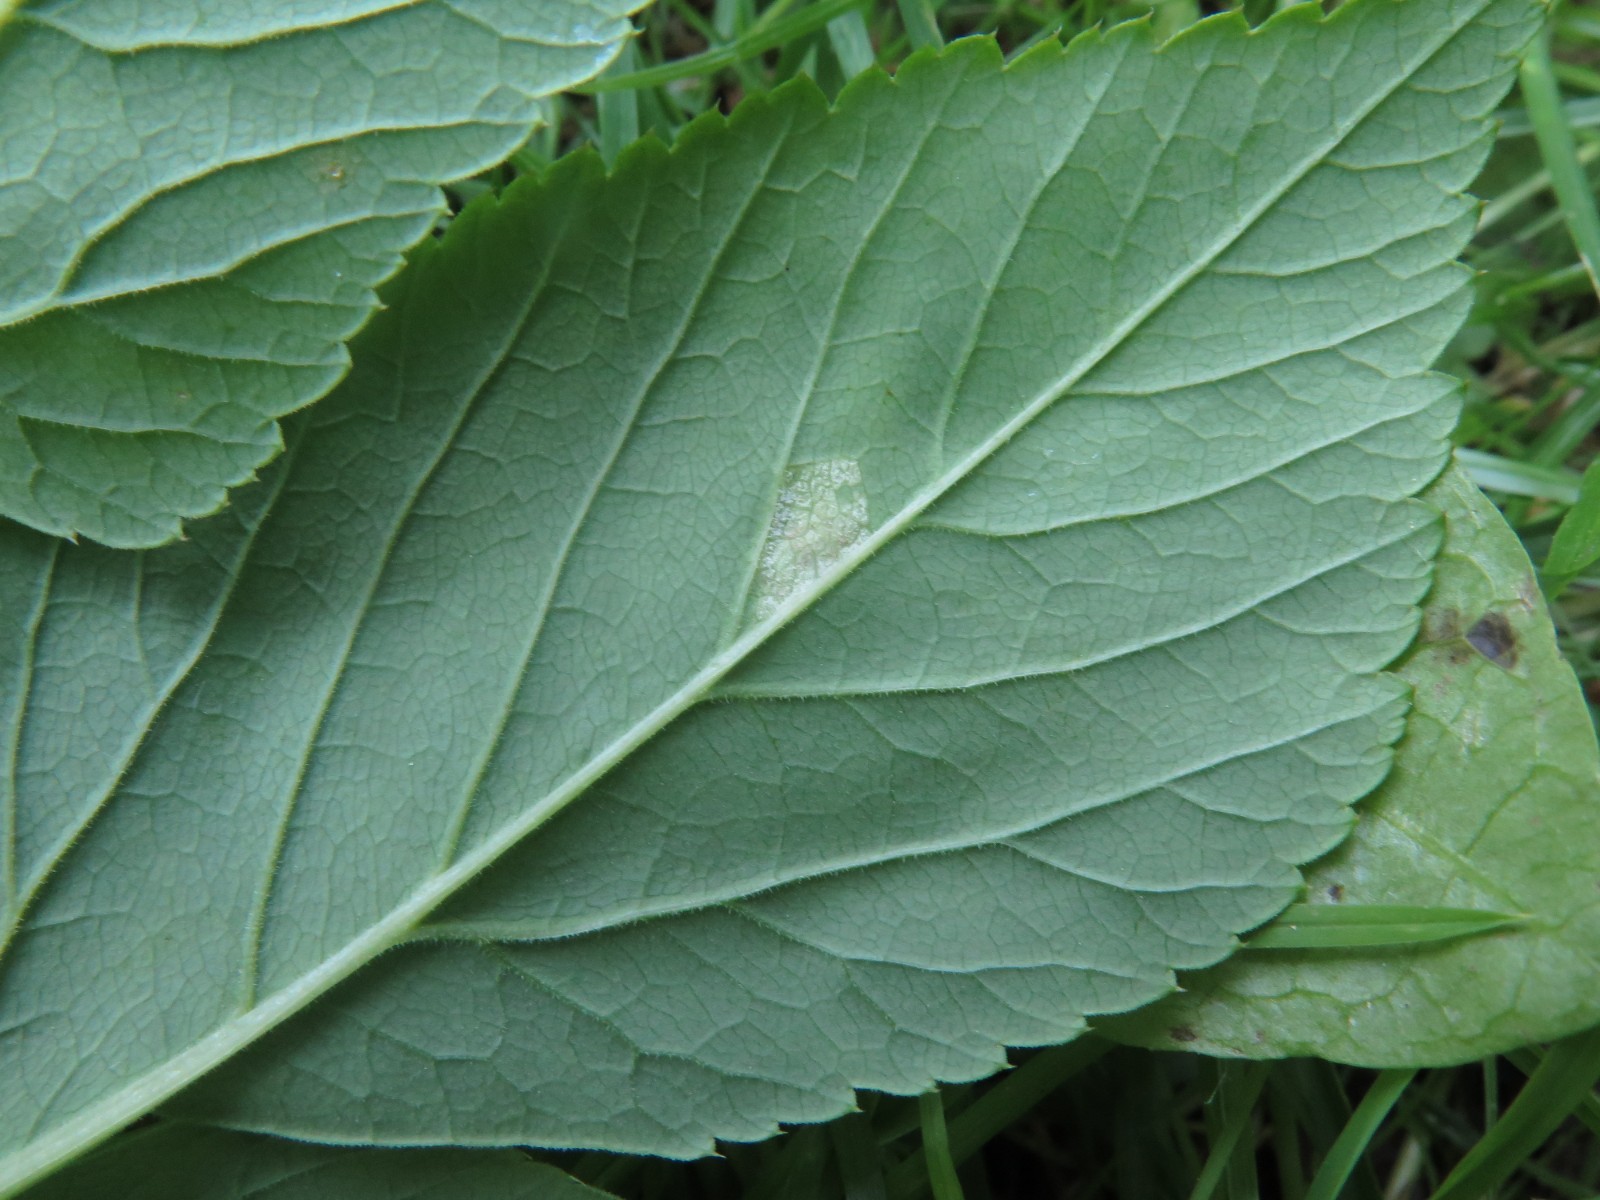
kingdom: Chromista
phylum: Oomycota
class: Peronosporea
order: Peronosporales
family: Peronosporaceae
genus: Peronospora
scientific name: Peronospora crustosa
